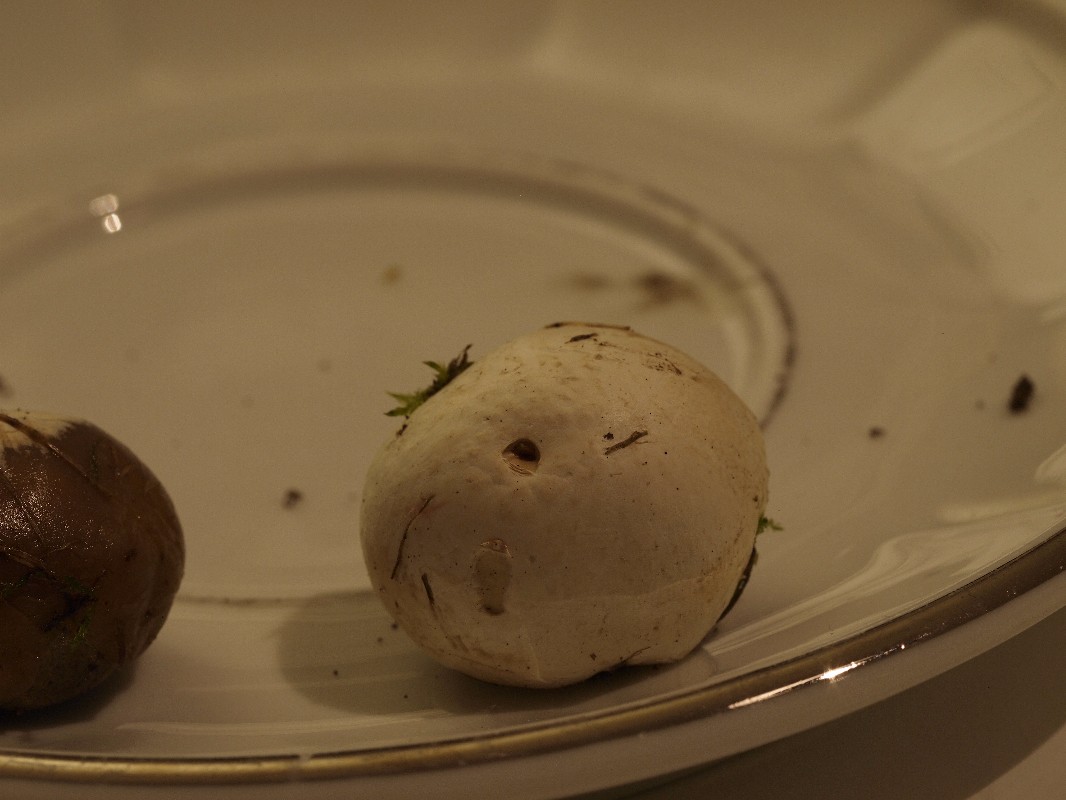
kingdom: Fungi
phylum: Basidiomycota
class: Agaricomycetes
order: Agaricales
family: Lycoperdaceae
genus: Bovista
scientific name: Bovista plumbea
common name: blygrå bovist
